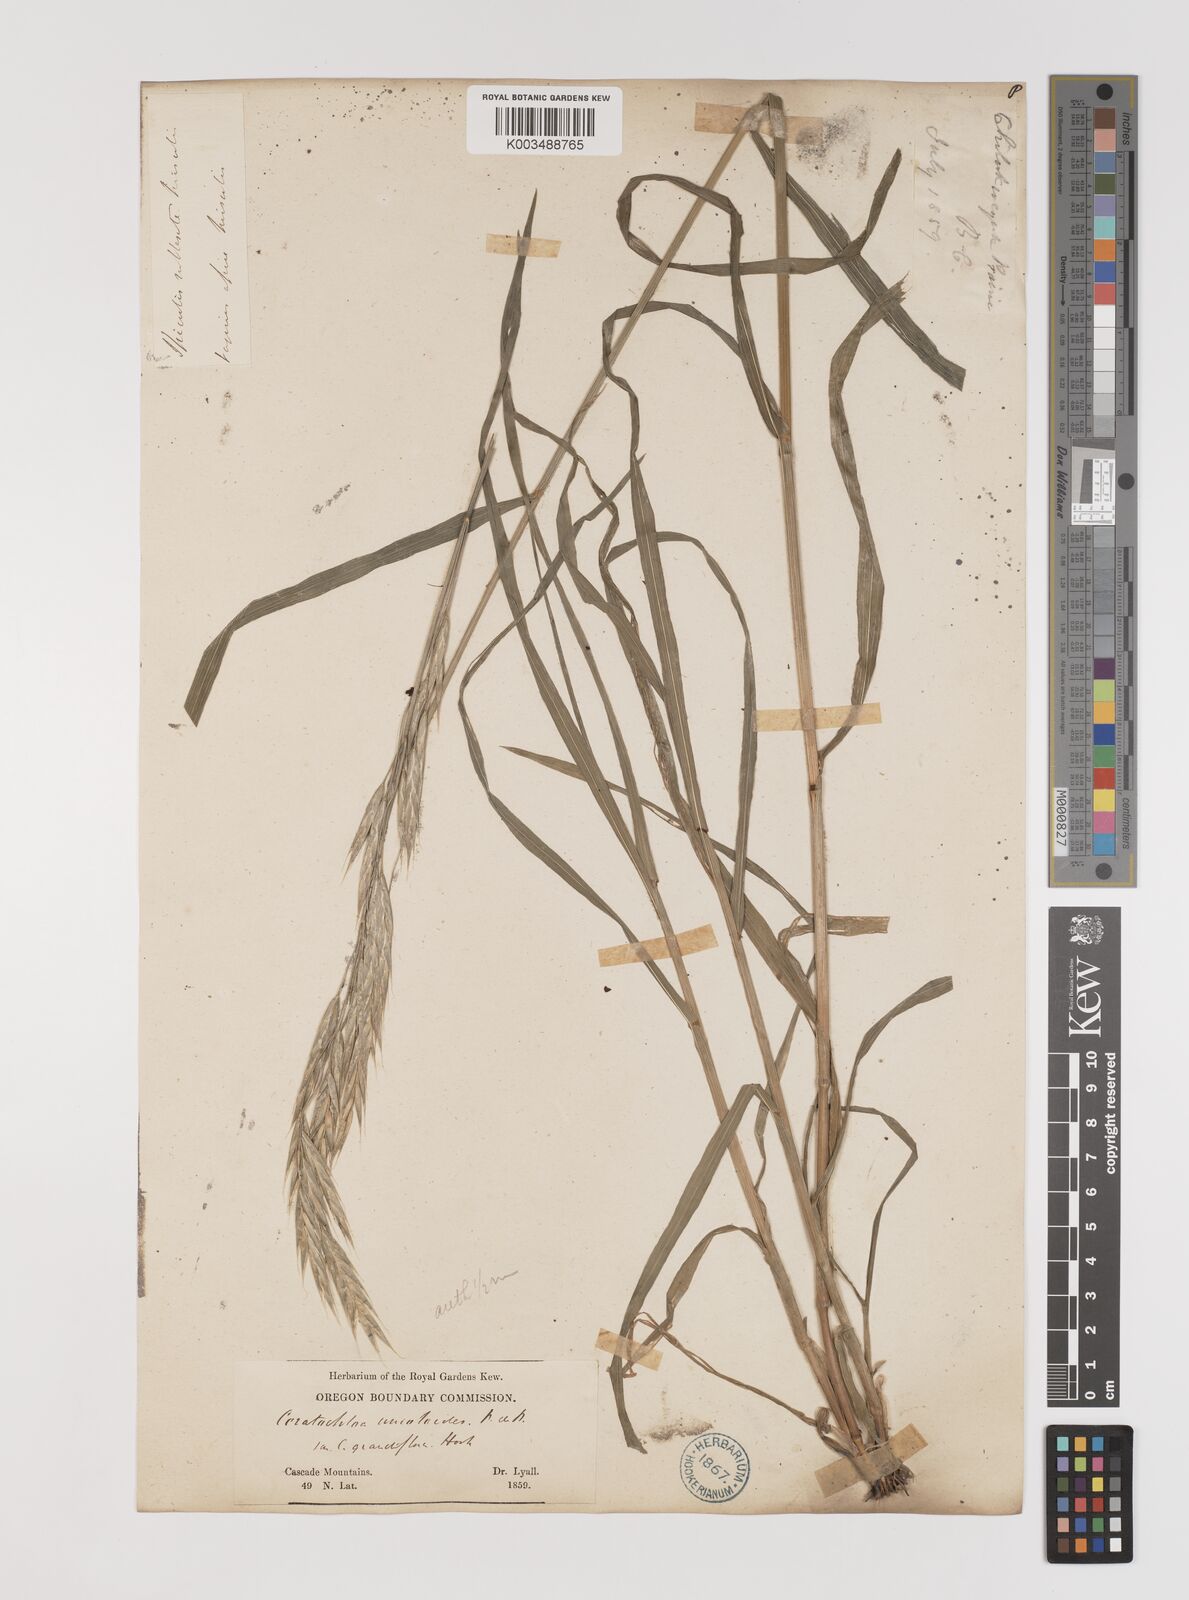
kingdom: Plantae
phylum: Tracheophyta
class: Liliopsida
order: Poales
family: Poaceae
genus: Bromus
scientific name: Bromus
